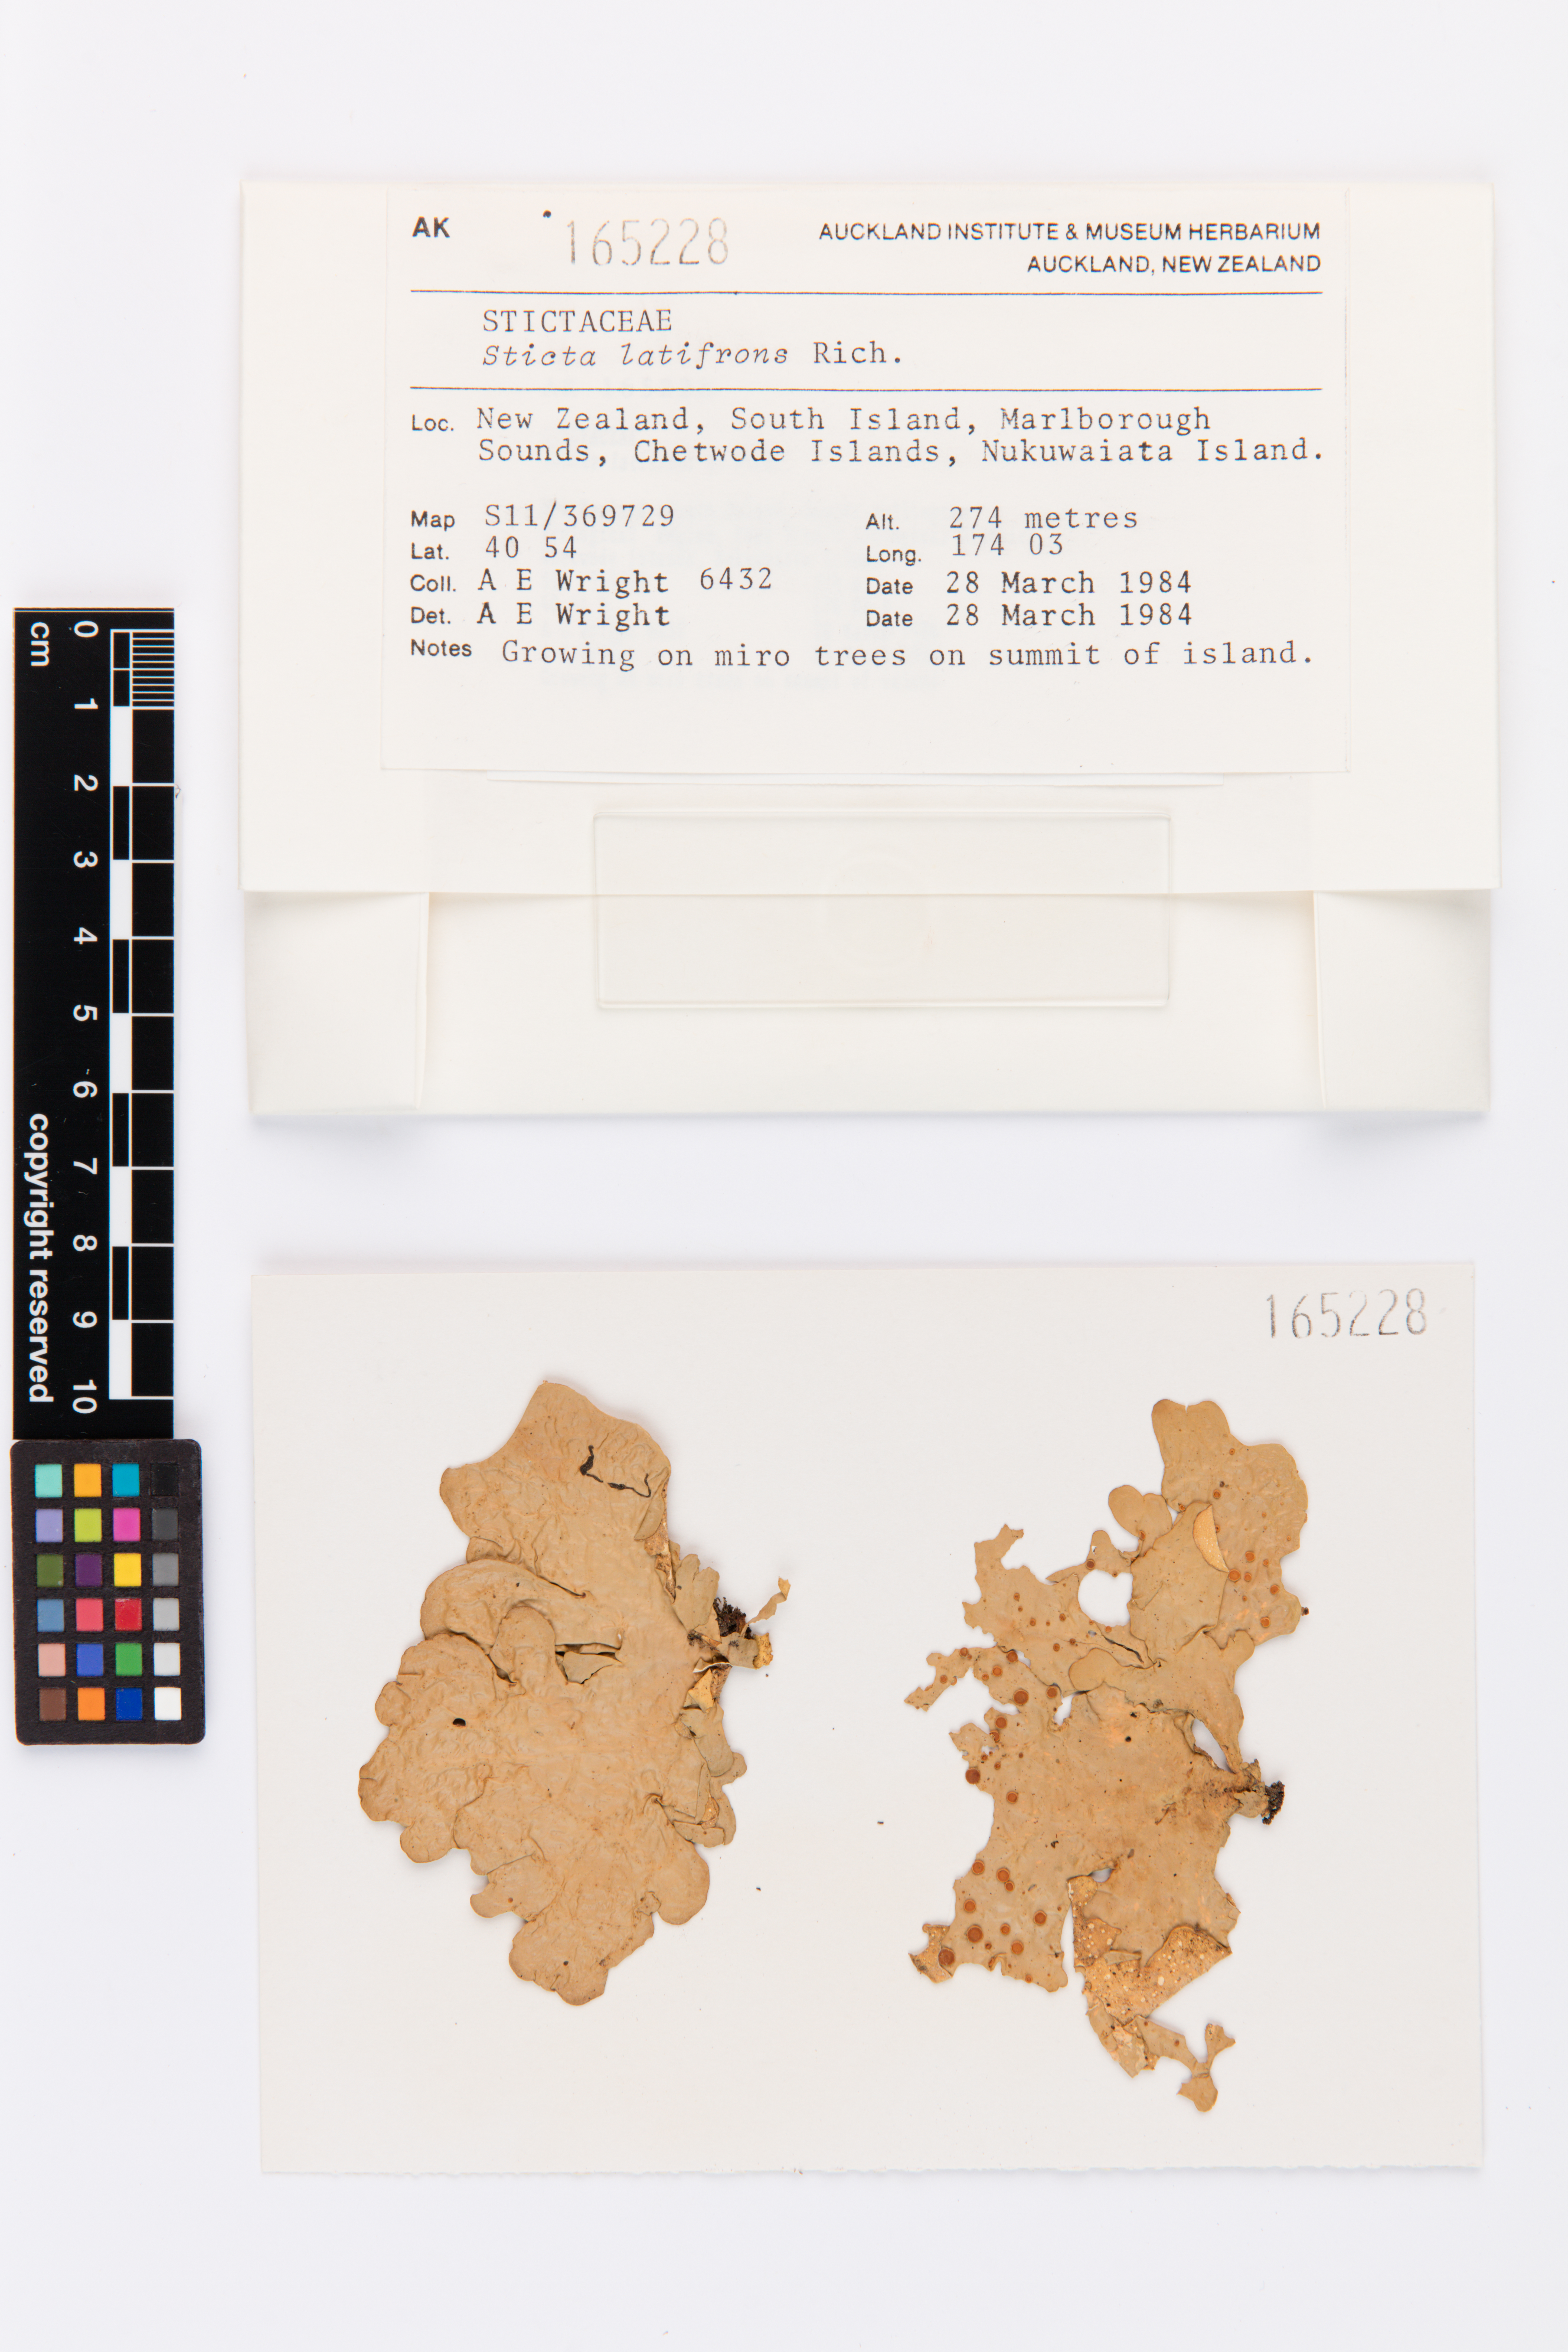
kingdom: Fungi
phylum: Ascomycota
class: Lecanoromycetes
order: Peltigerales
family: Lobariaceae
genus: Sticta
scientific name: Sticta latifrons
